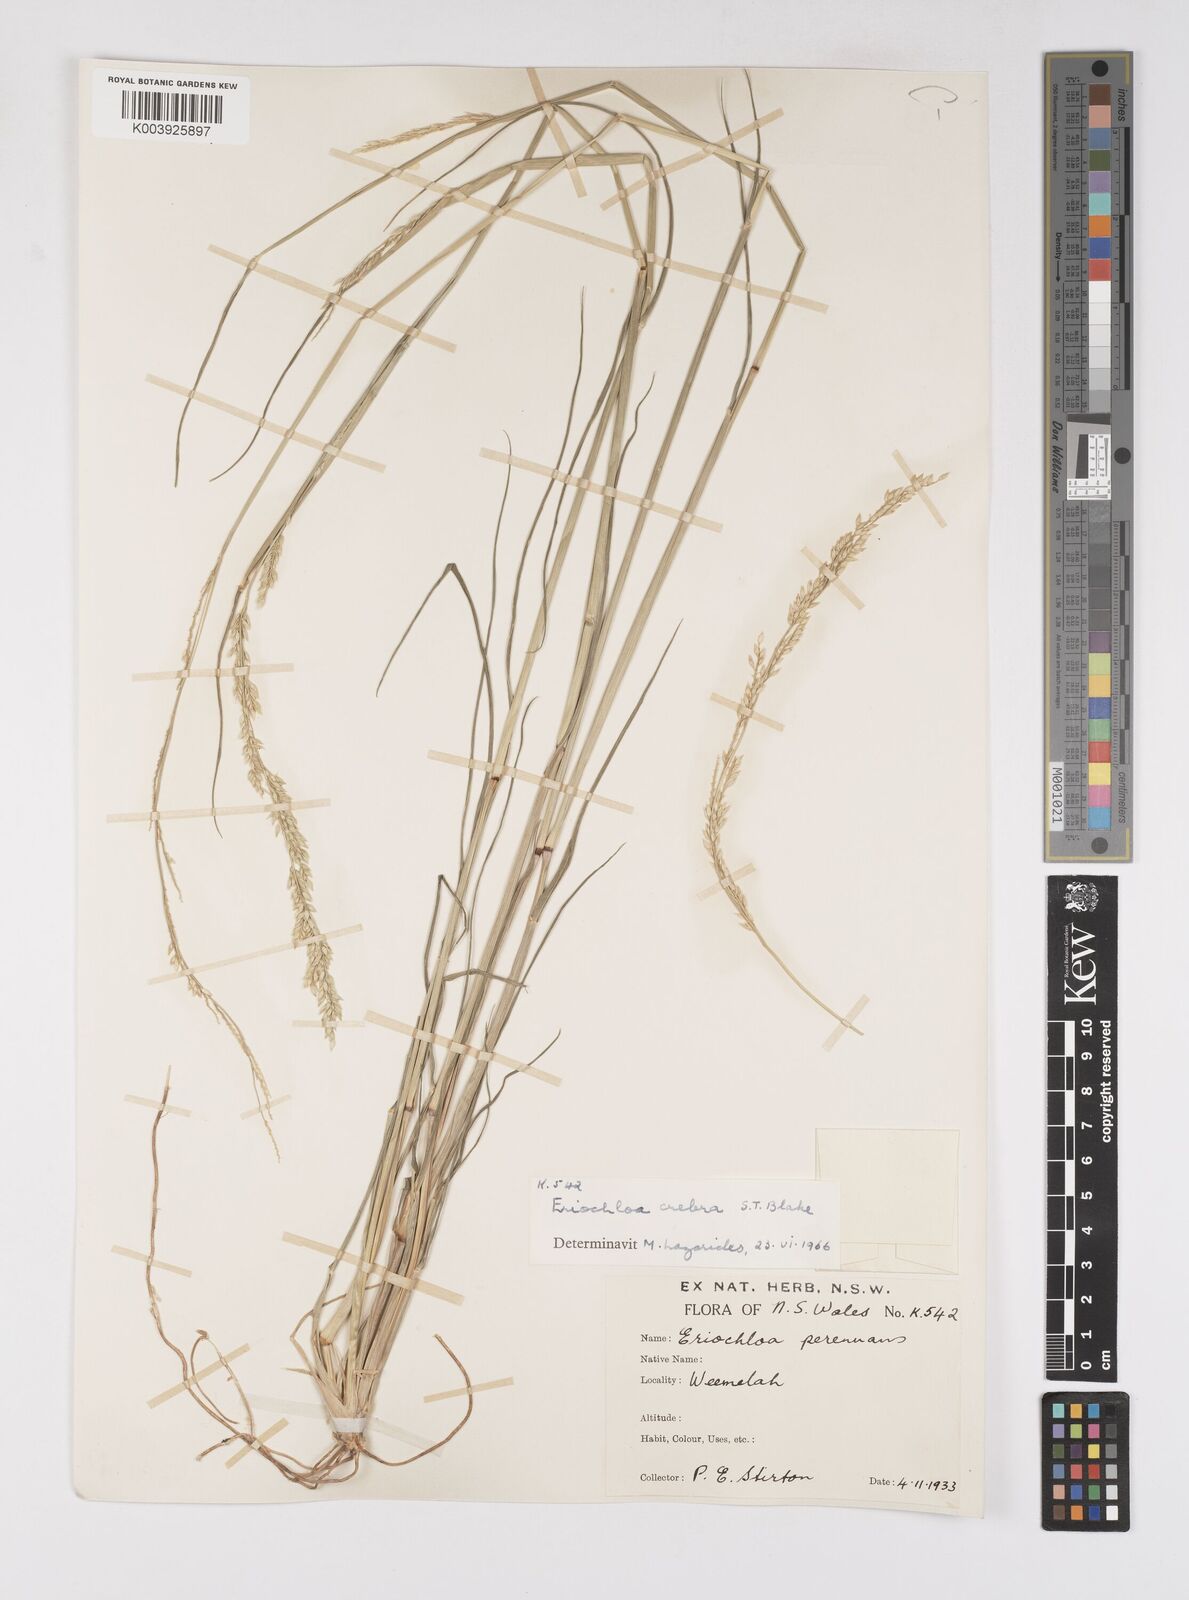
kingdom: Plantae
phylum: Tracheophyta
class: Liliopsida
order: Poales
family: Poaceae
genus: Eriochloa
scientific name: Eriochloa crebra
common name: Cup grass
